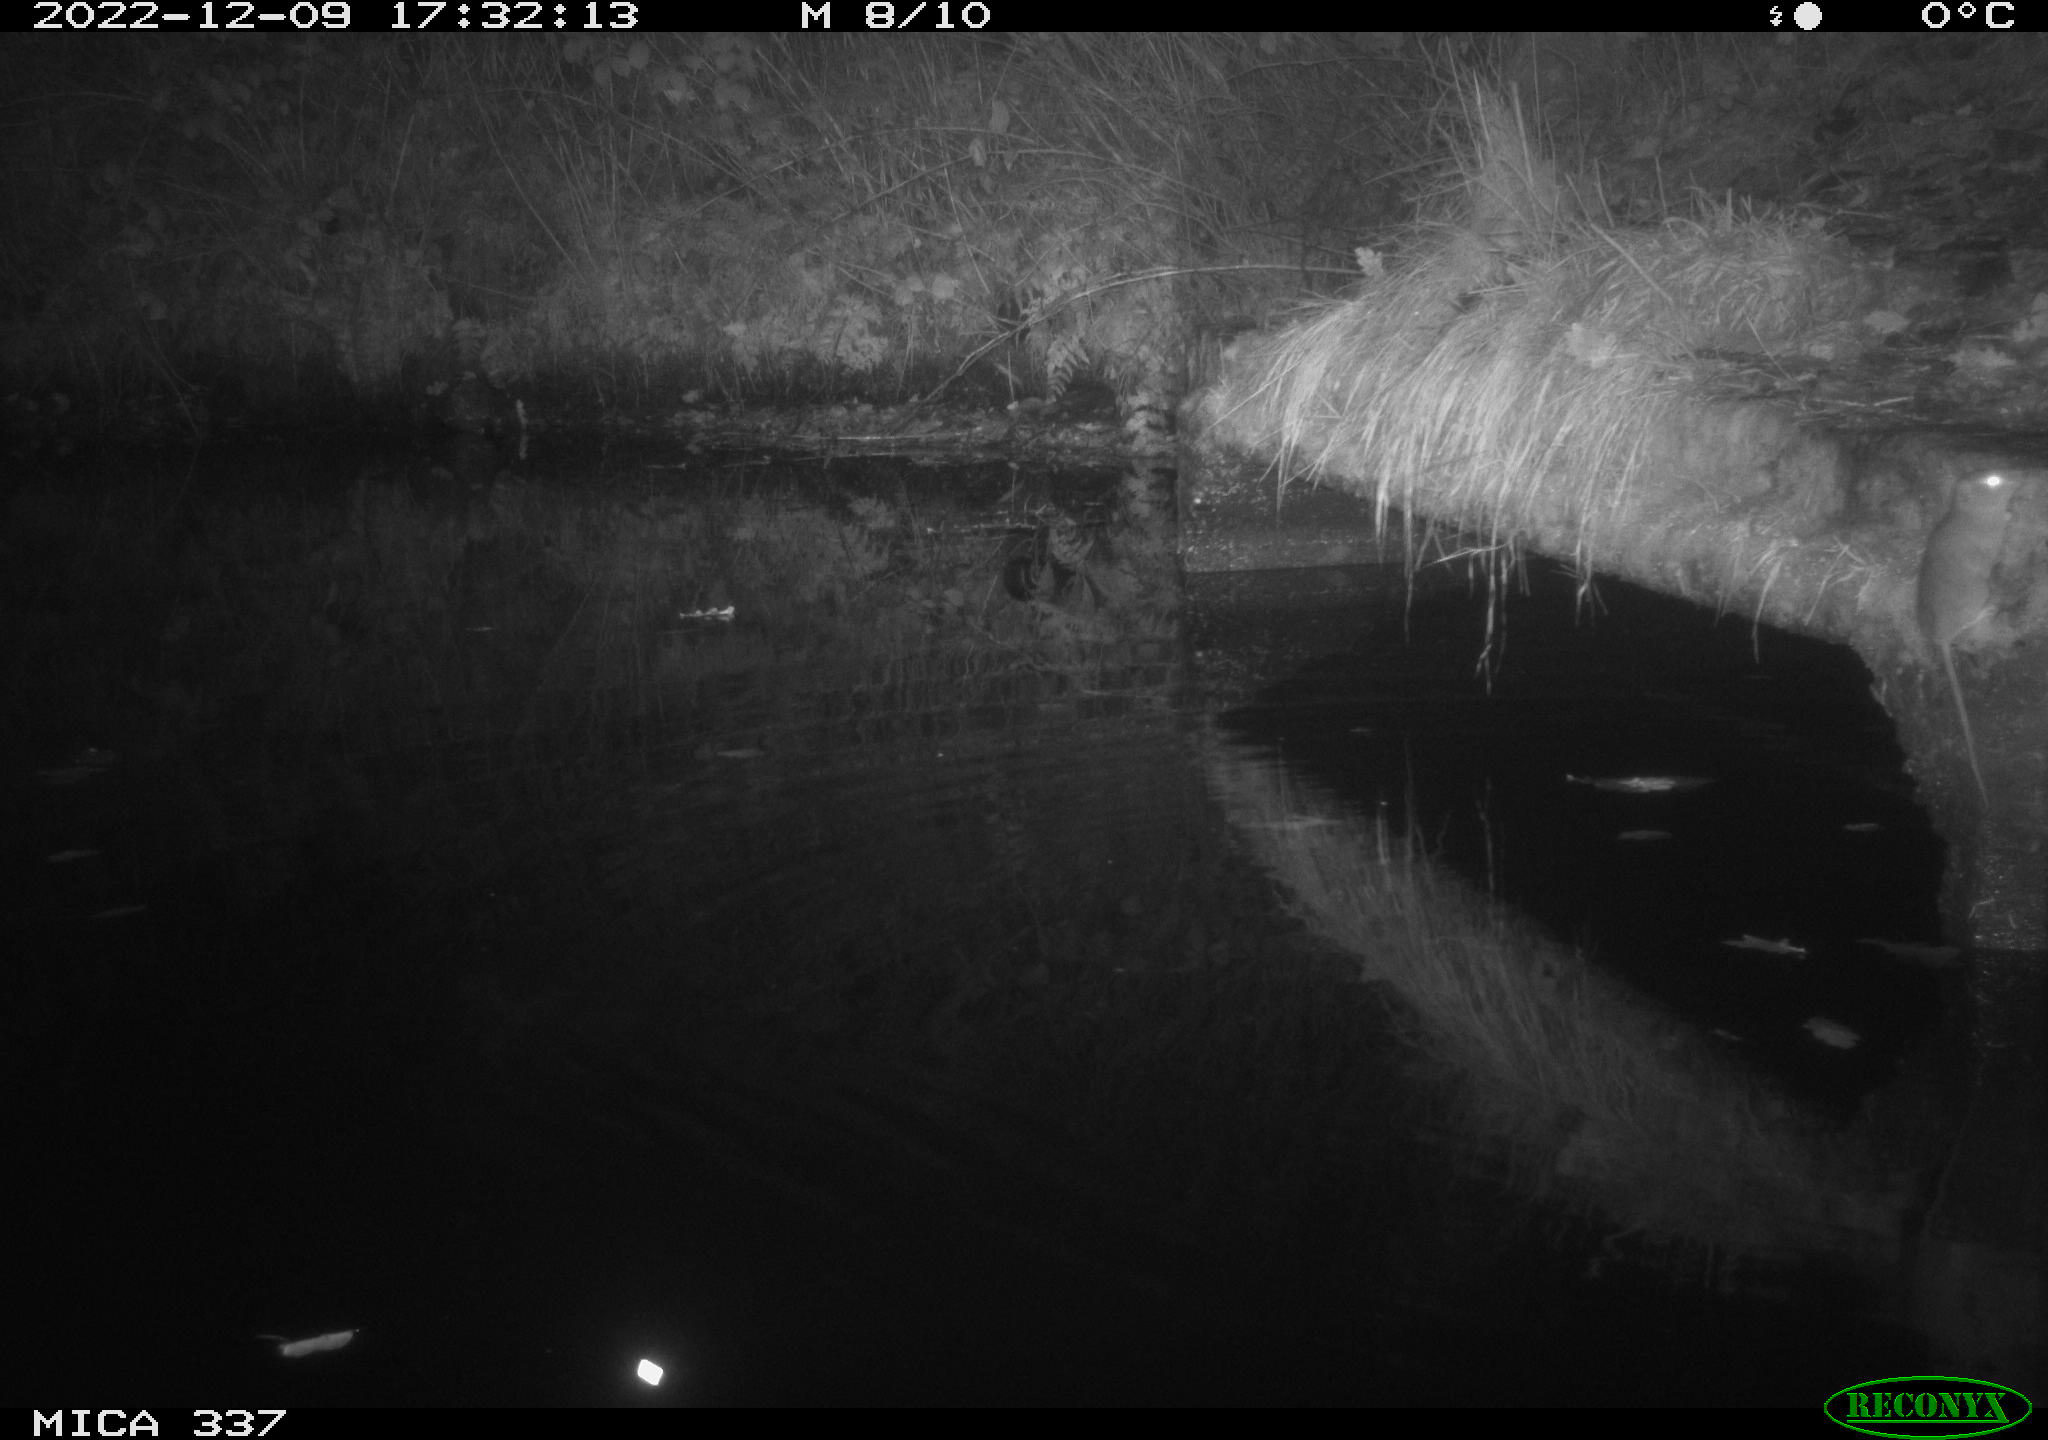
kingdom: Animalia
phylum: Chordata
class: Mammalia
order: Rodentia
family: Muridae
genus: Rattus
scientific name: Rattus norvegicus
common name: Brown rat
